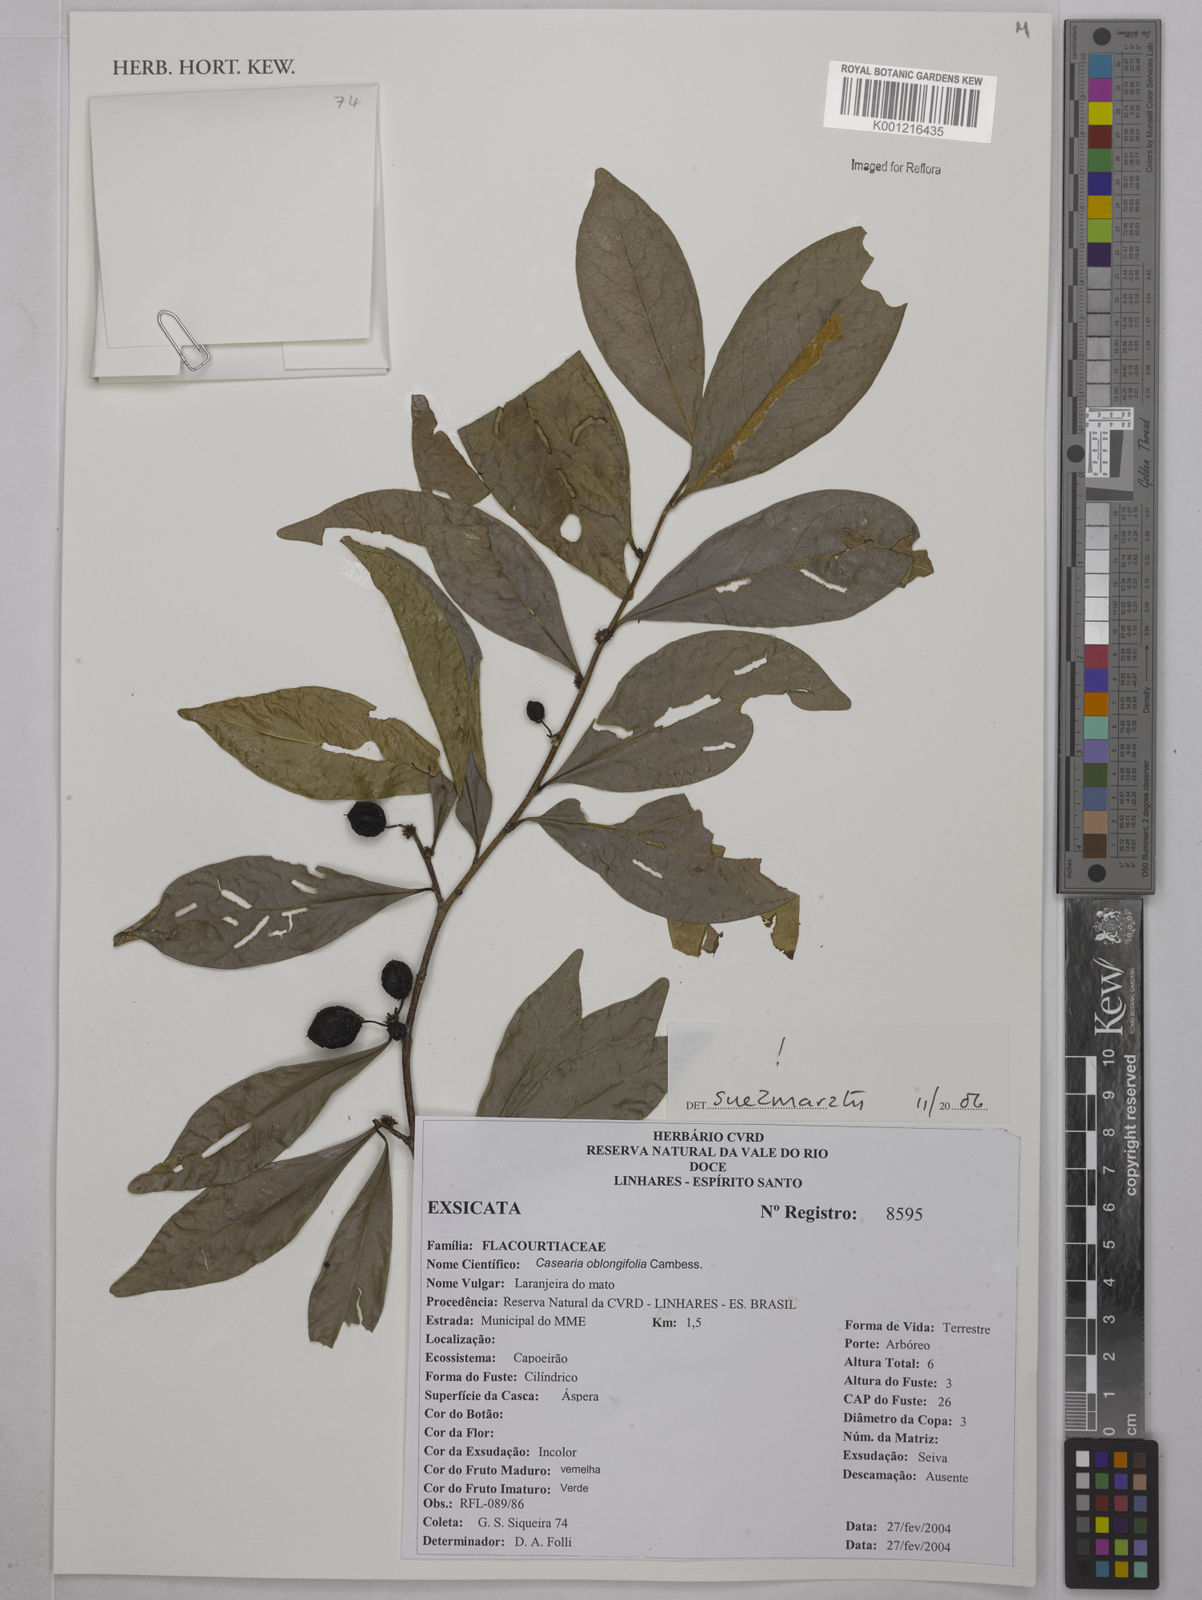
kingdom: Plantae
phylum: Tracheophyta
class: Magnoliopsida
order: Malpighiales
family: Salicaceae
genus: Casearia
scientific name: Casearia oblongifolia
